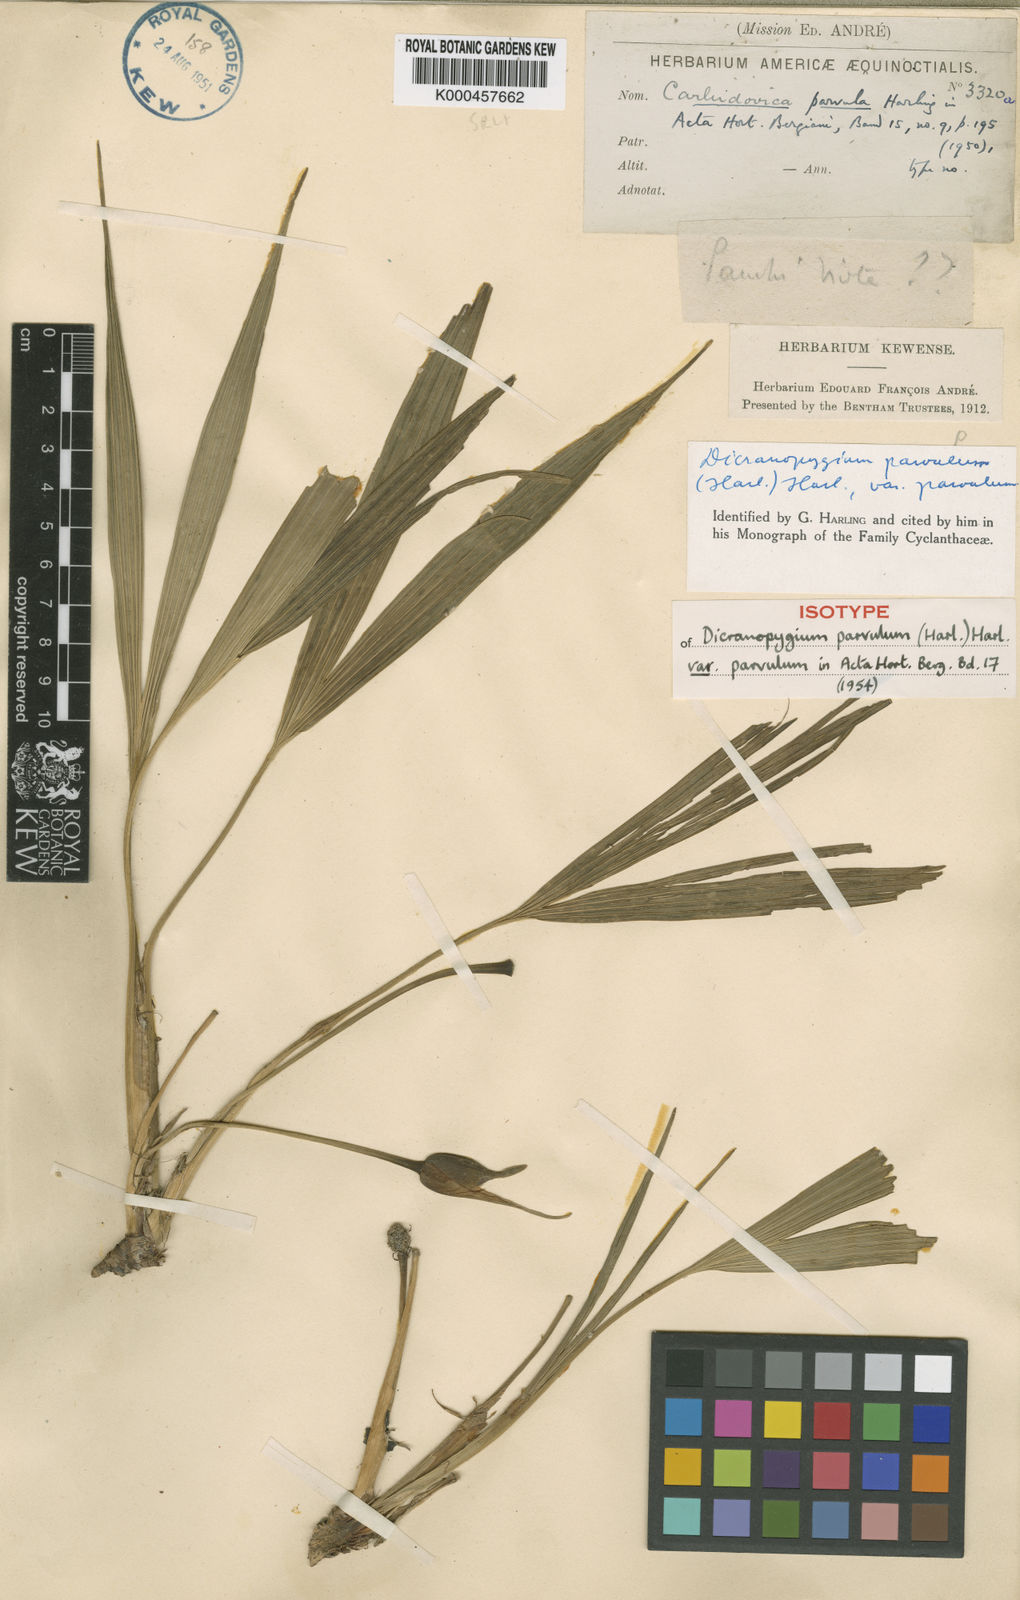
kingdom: Plantae
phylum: Tracheophyta
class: Liliopsida
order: Pandanales
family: Cyclanthaceae
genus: Dicranopygium
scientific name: Dicranopygium parvulum
